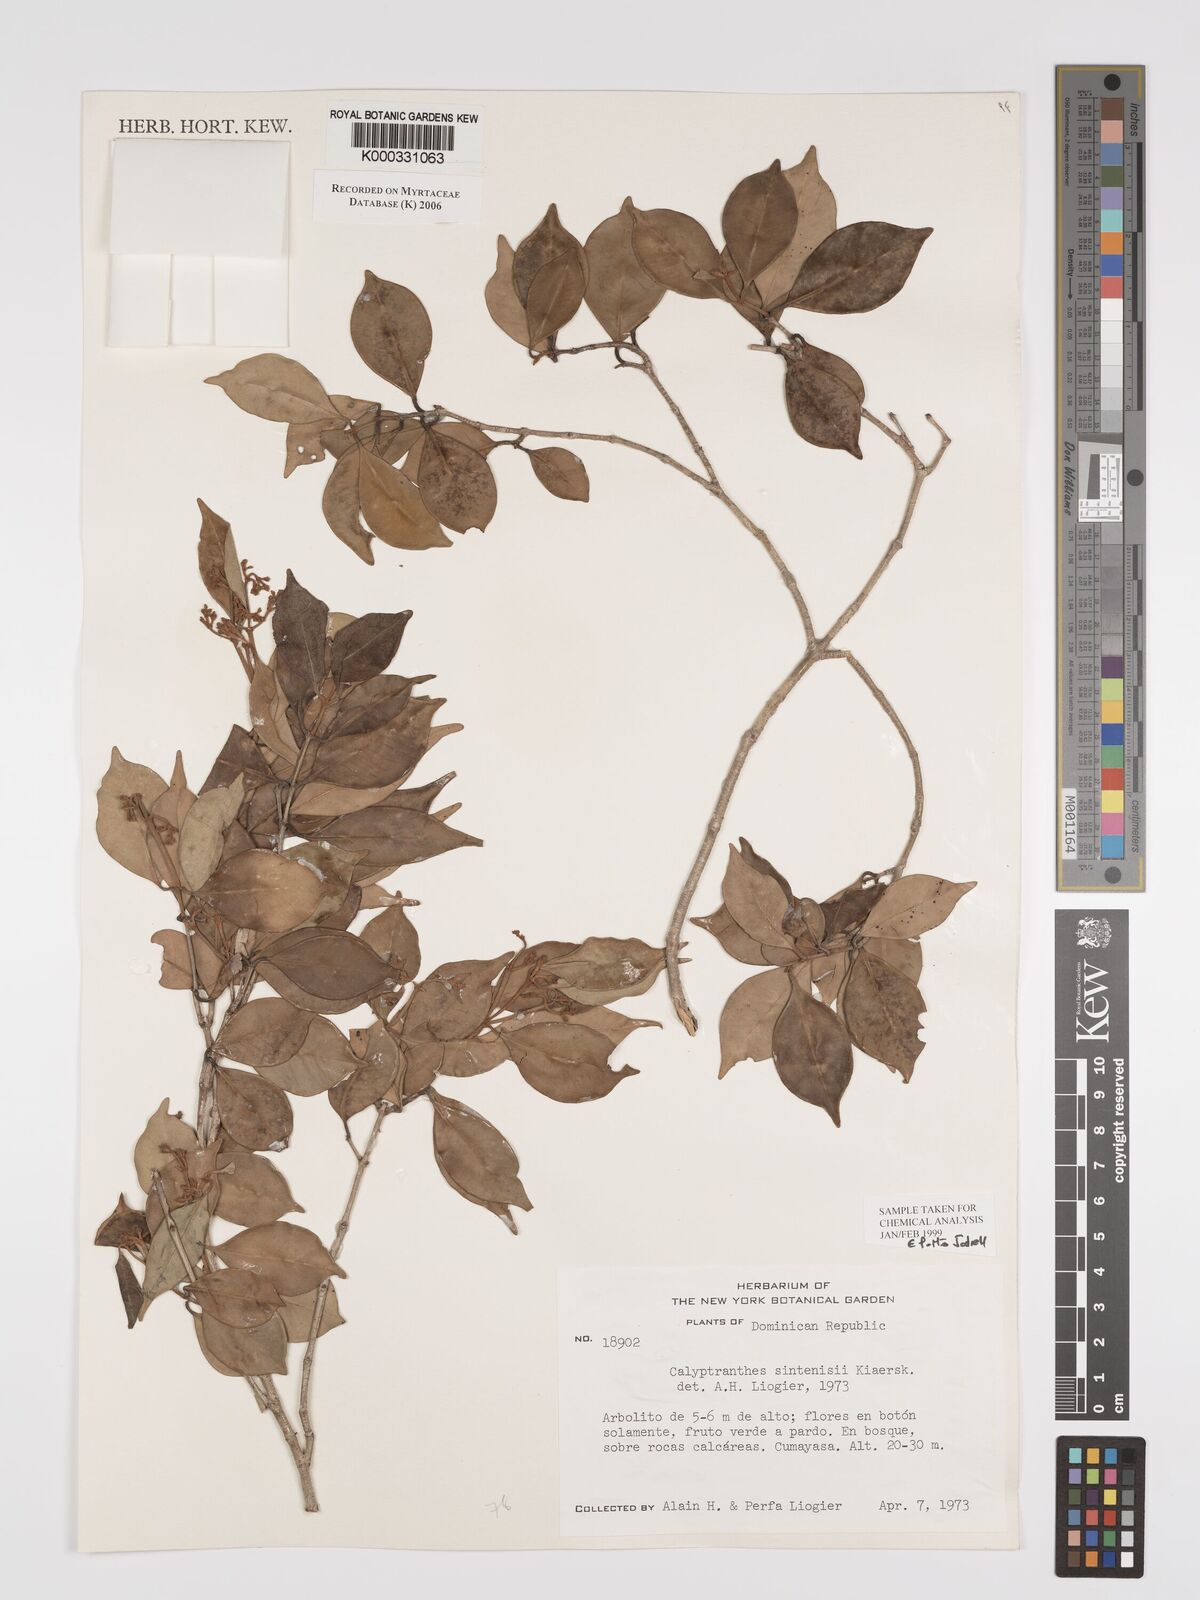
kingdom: Plantae
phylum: Tracheophyta
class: Magnoliopsida
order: Myrtales
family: Myrtaceae
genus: Myrcia
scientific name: Myrcia neosintenisii
